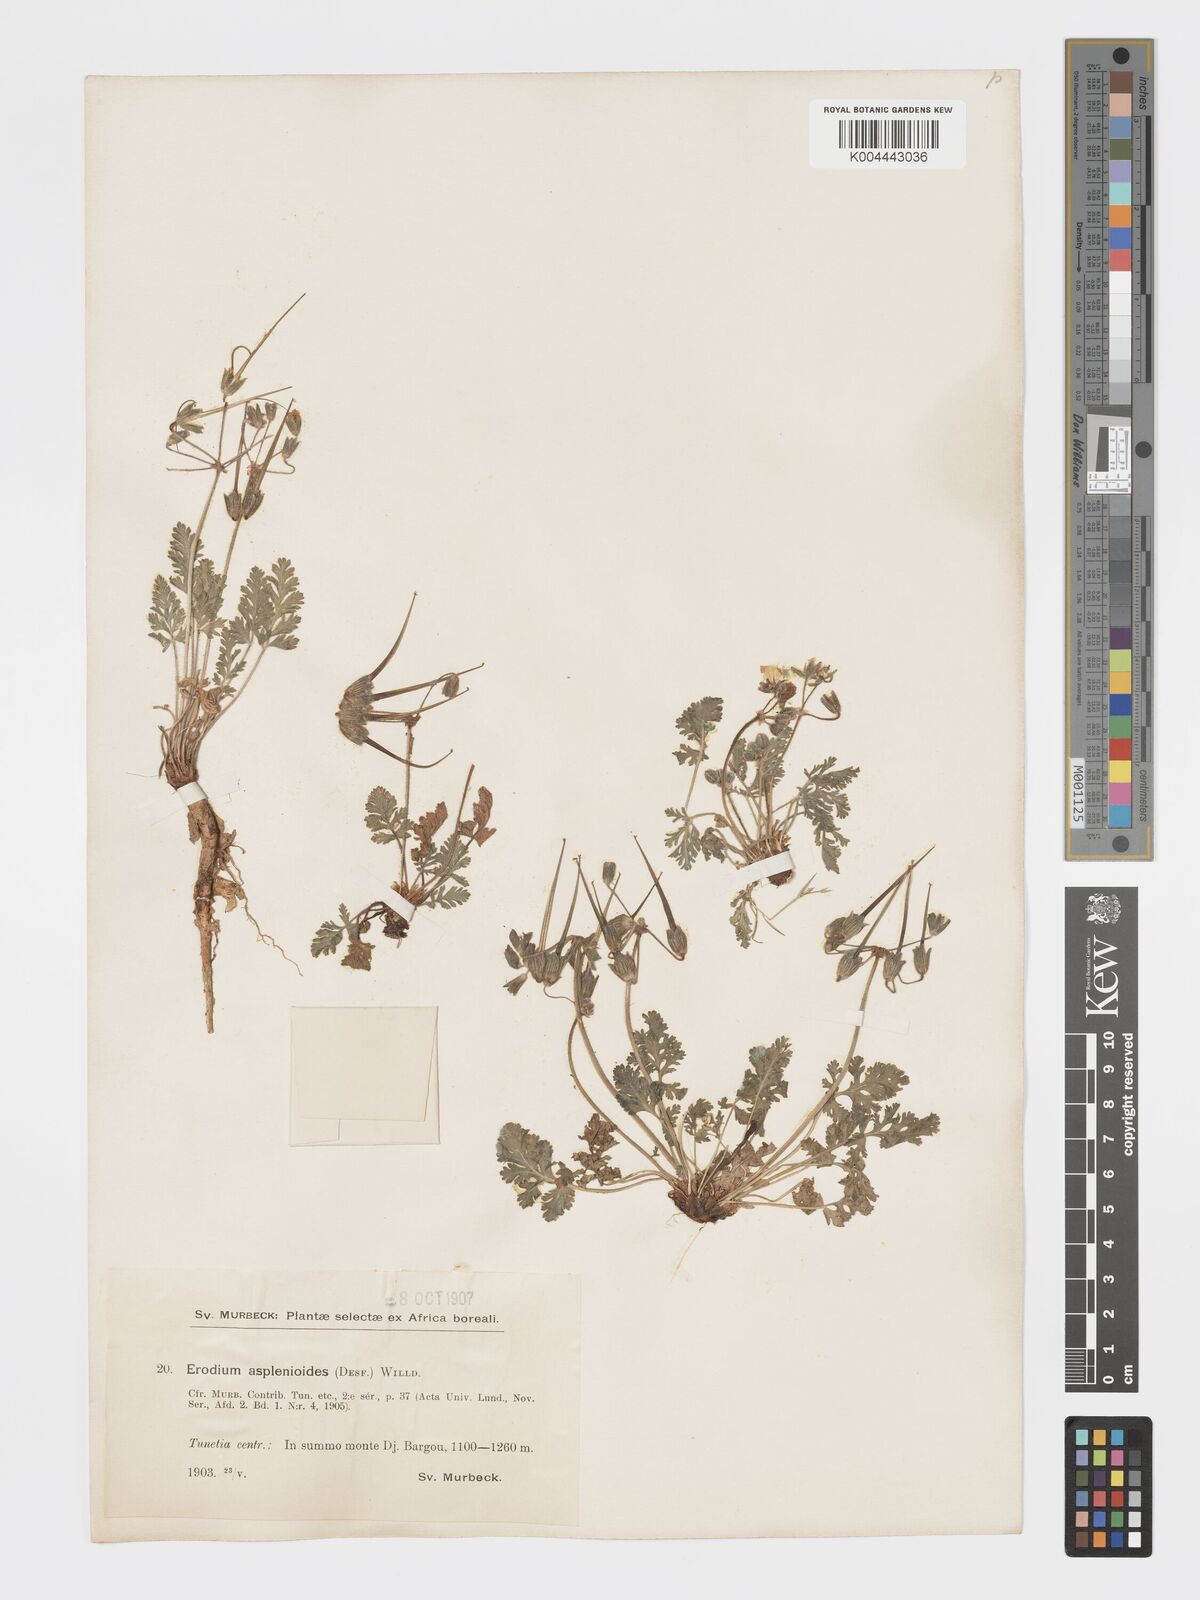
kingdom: Plantae
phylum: Tracheophyta
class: Magnoliopsida
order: Geraniales
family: Geraniaceae
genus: Erodium
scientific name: Erodium
